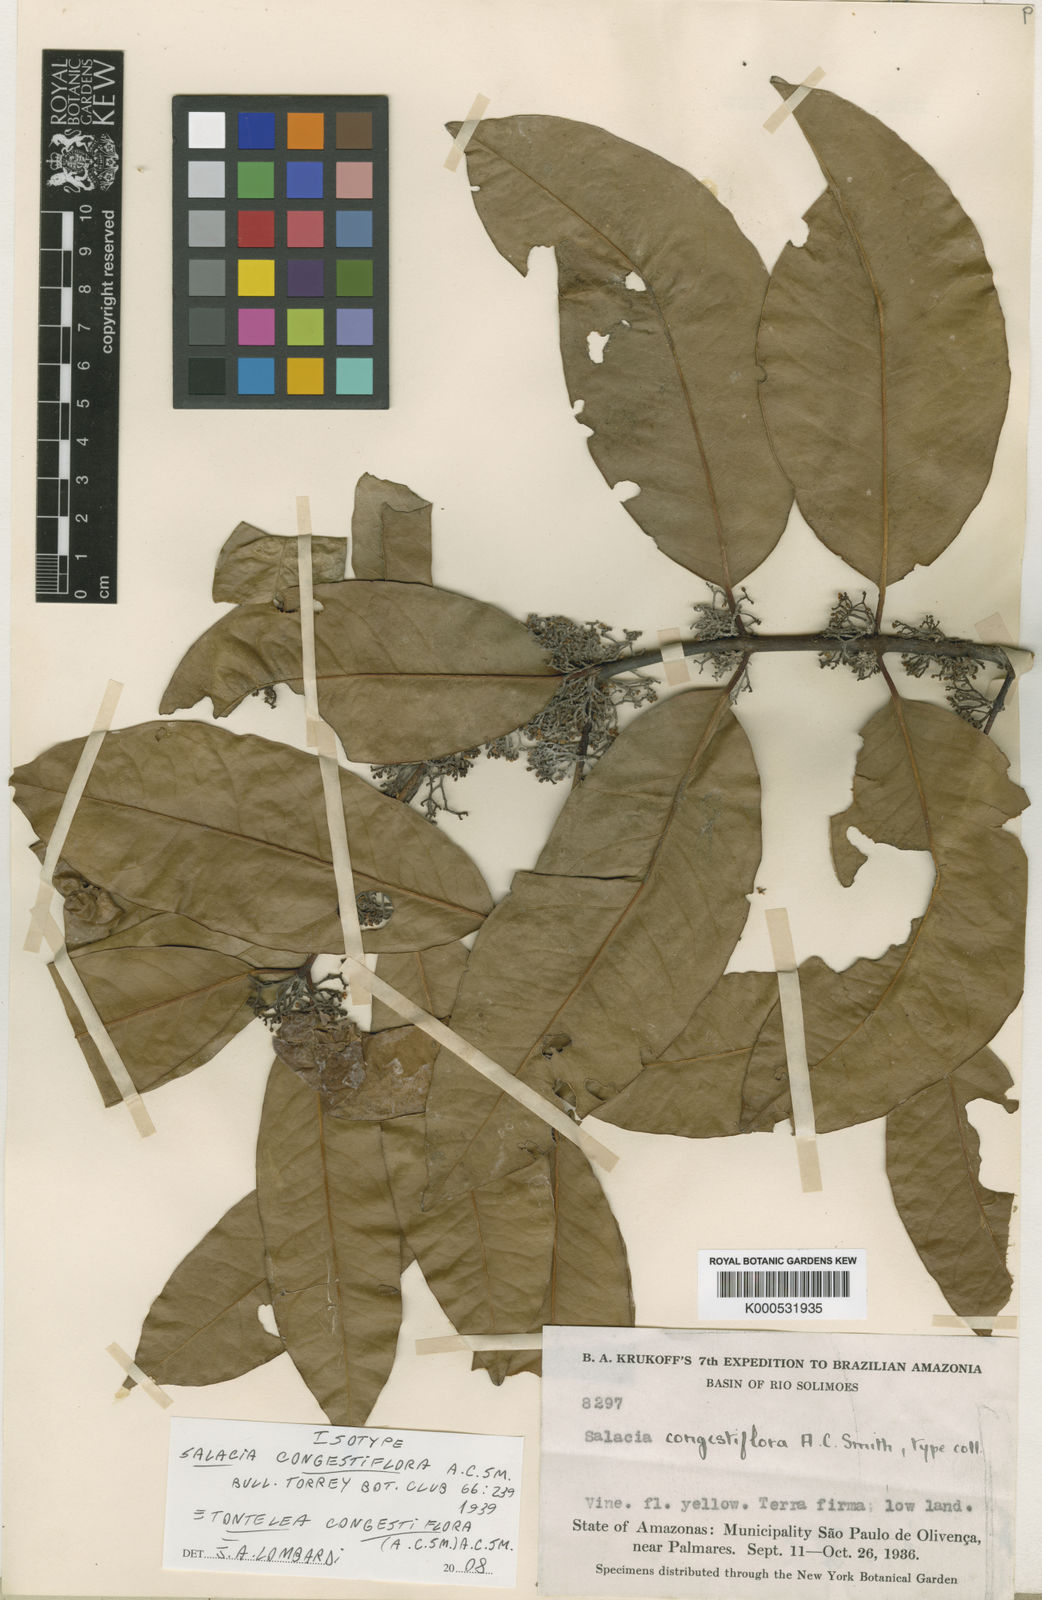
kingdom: Plantae
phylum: Tracheophyta
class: Magnoliopsida
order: Celastrales
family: Celastraceae
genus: Tontelea
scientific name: Tontelea congestiflora
